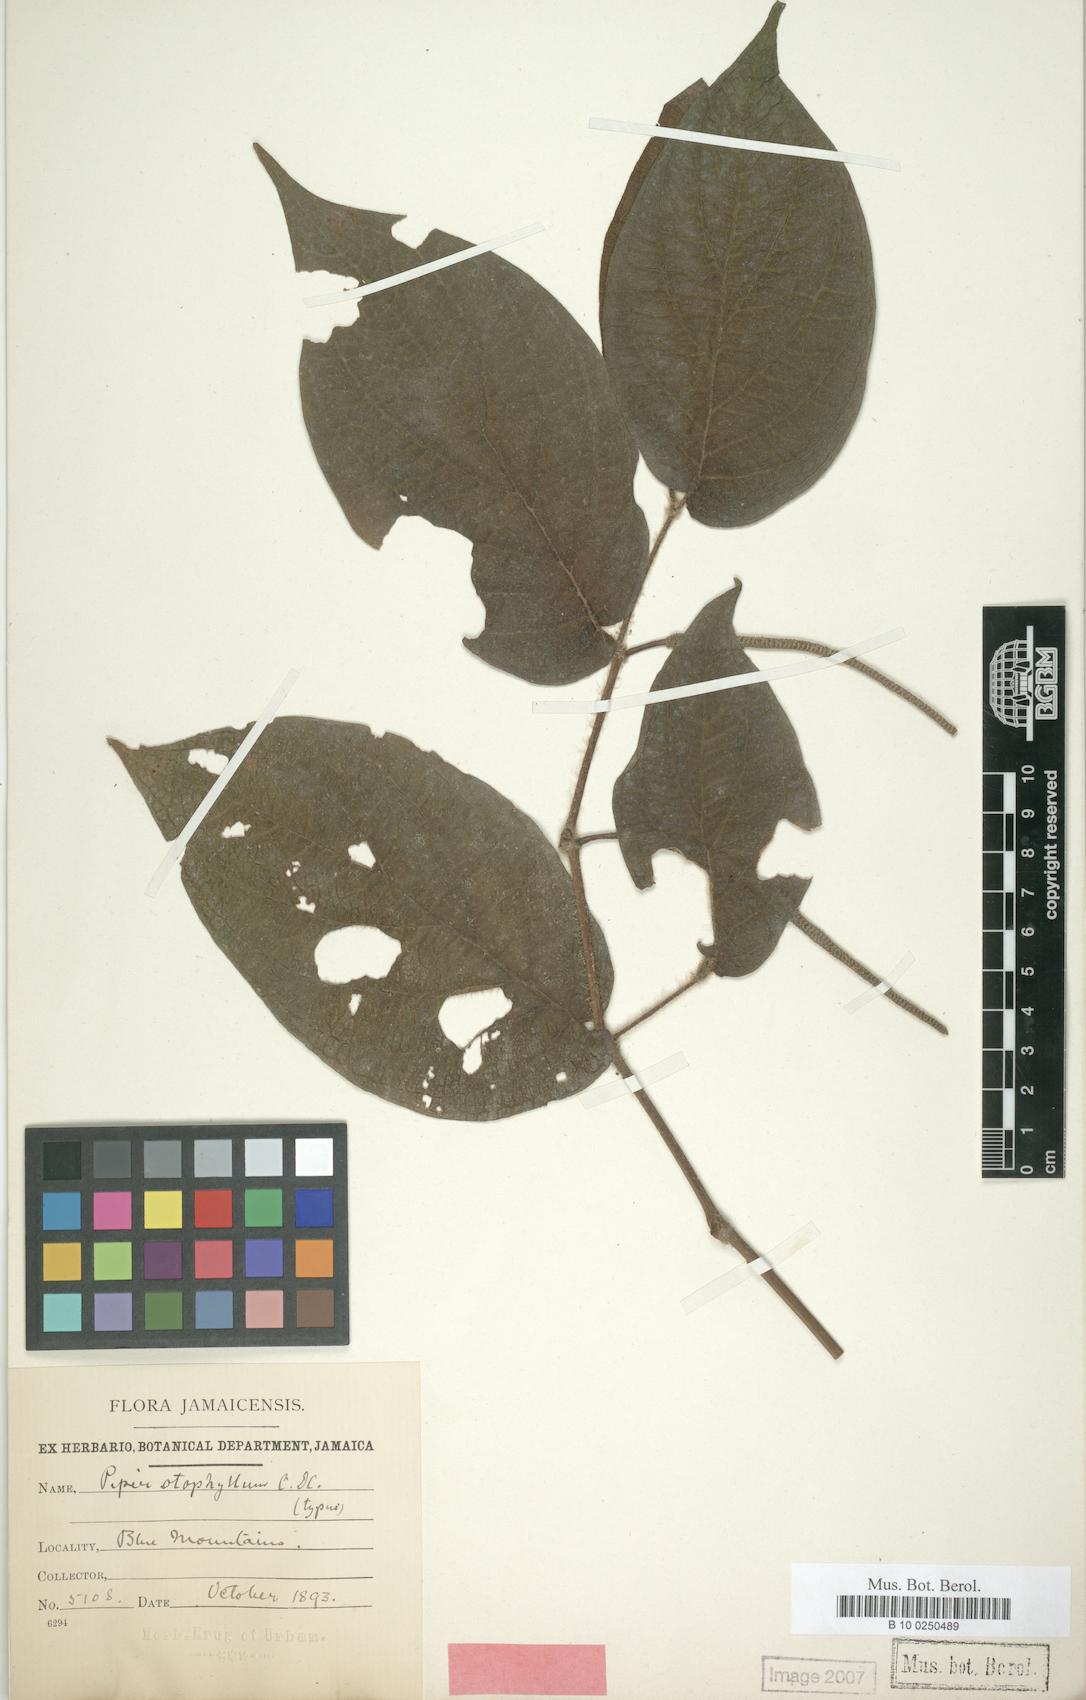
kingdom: Plantae
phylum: Tracheophyta
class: Magnoliopsida
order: Piperales
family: Piperaceae
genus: Piper
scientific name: Piper fadyenii
